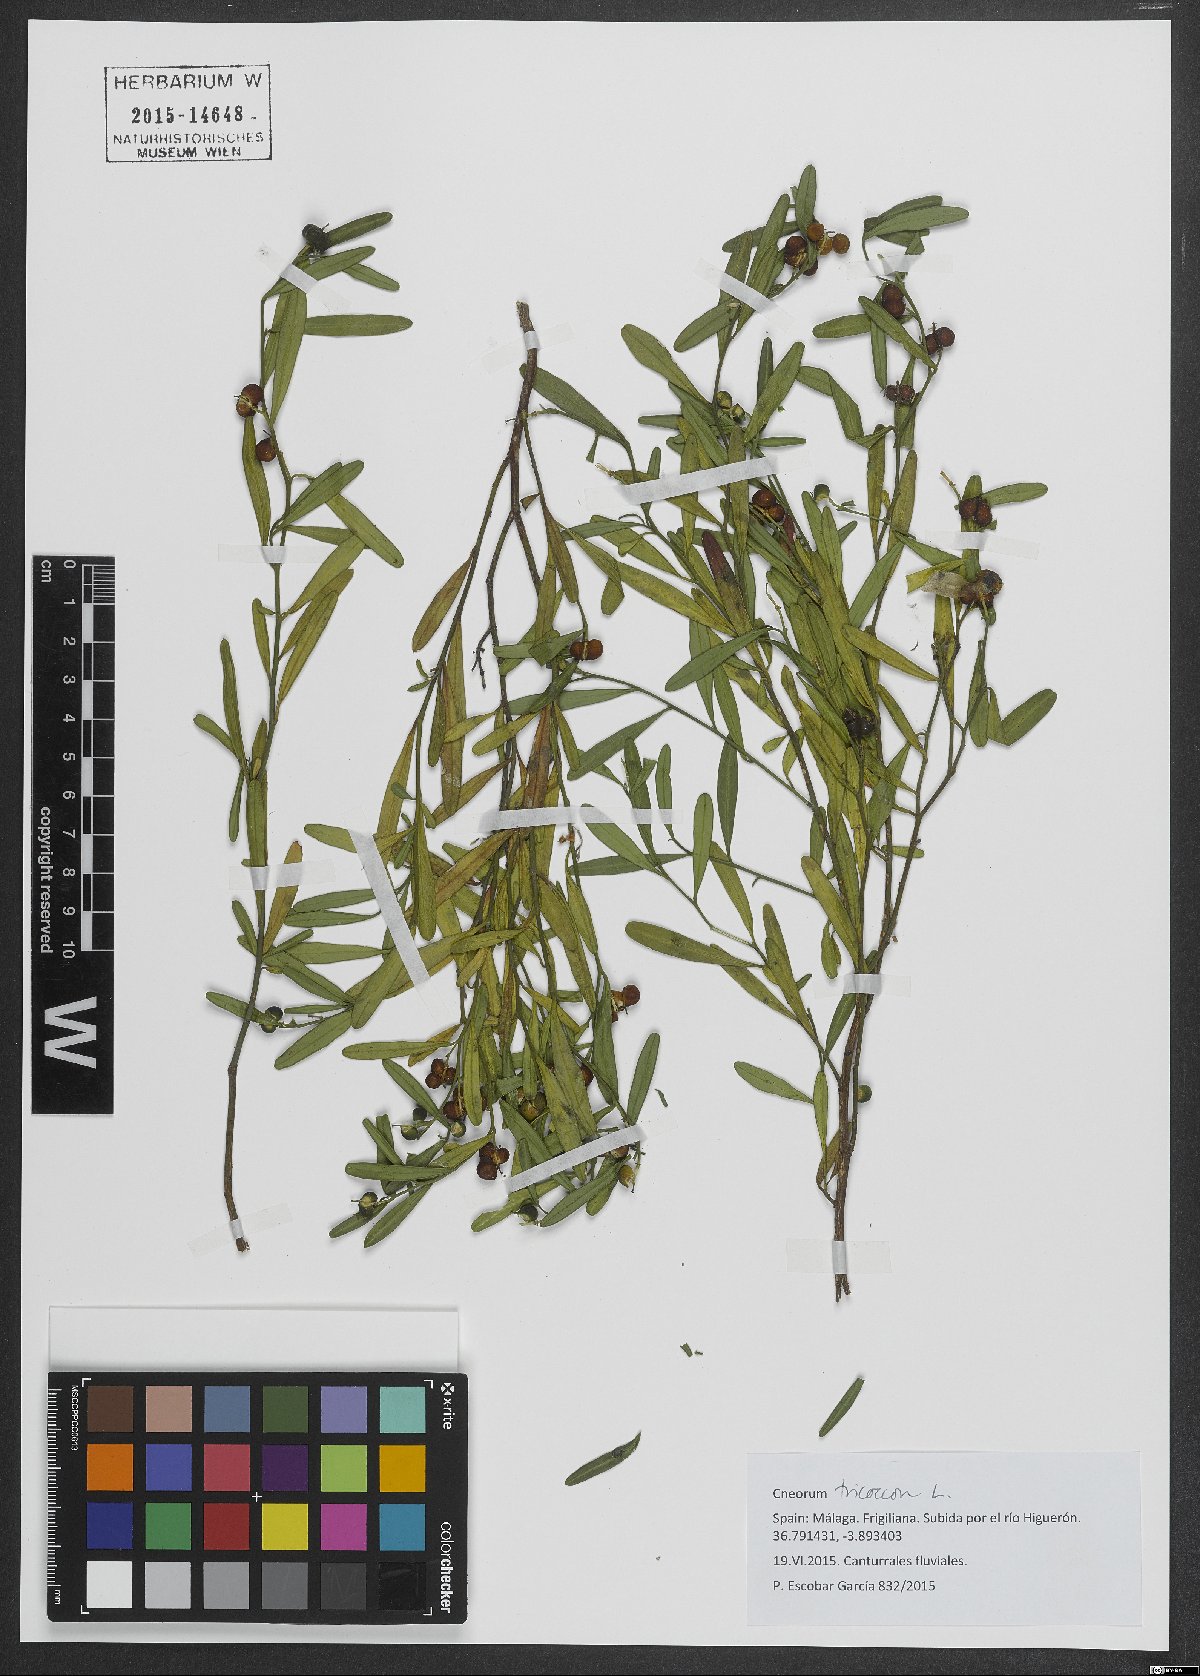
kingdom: Plantae
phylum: Tracheophyta
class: Magnoliopsida
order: Sapindales
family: Rutaceae
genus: Cneorum
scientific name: Cneorum tricoccon
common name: Spurge olive
